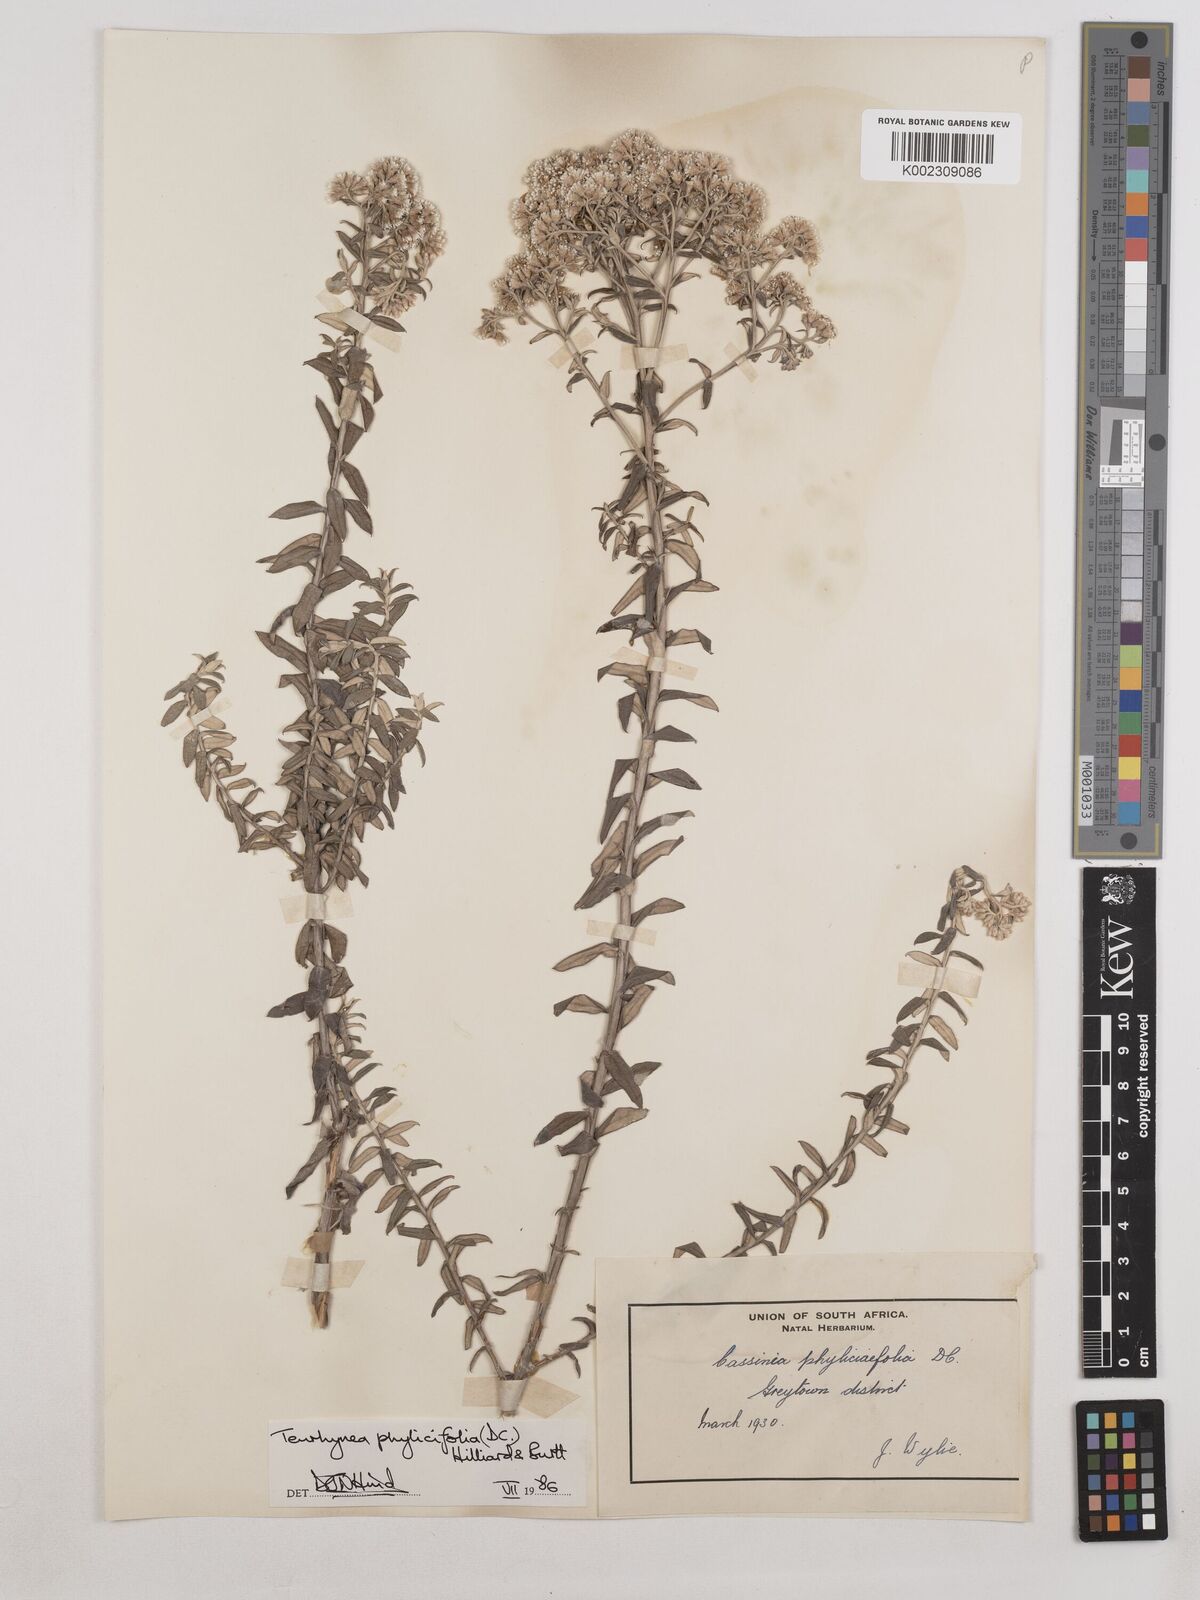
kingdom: Plantae
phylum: Tracheophyta
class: Magnoliopsida
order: Asterales
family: Asteraceae
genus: Tenrhynea
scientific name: Tenrhynea phylicifolia
